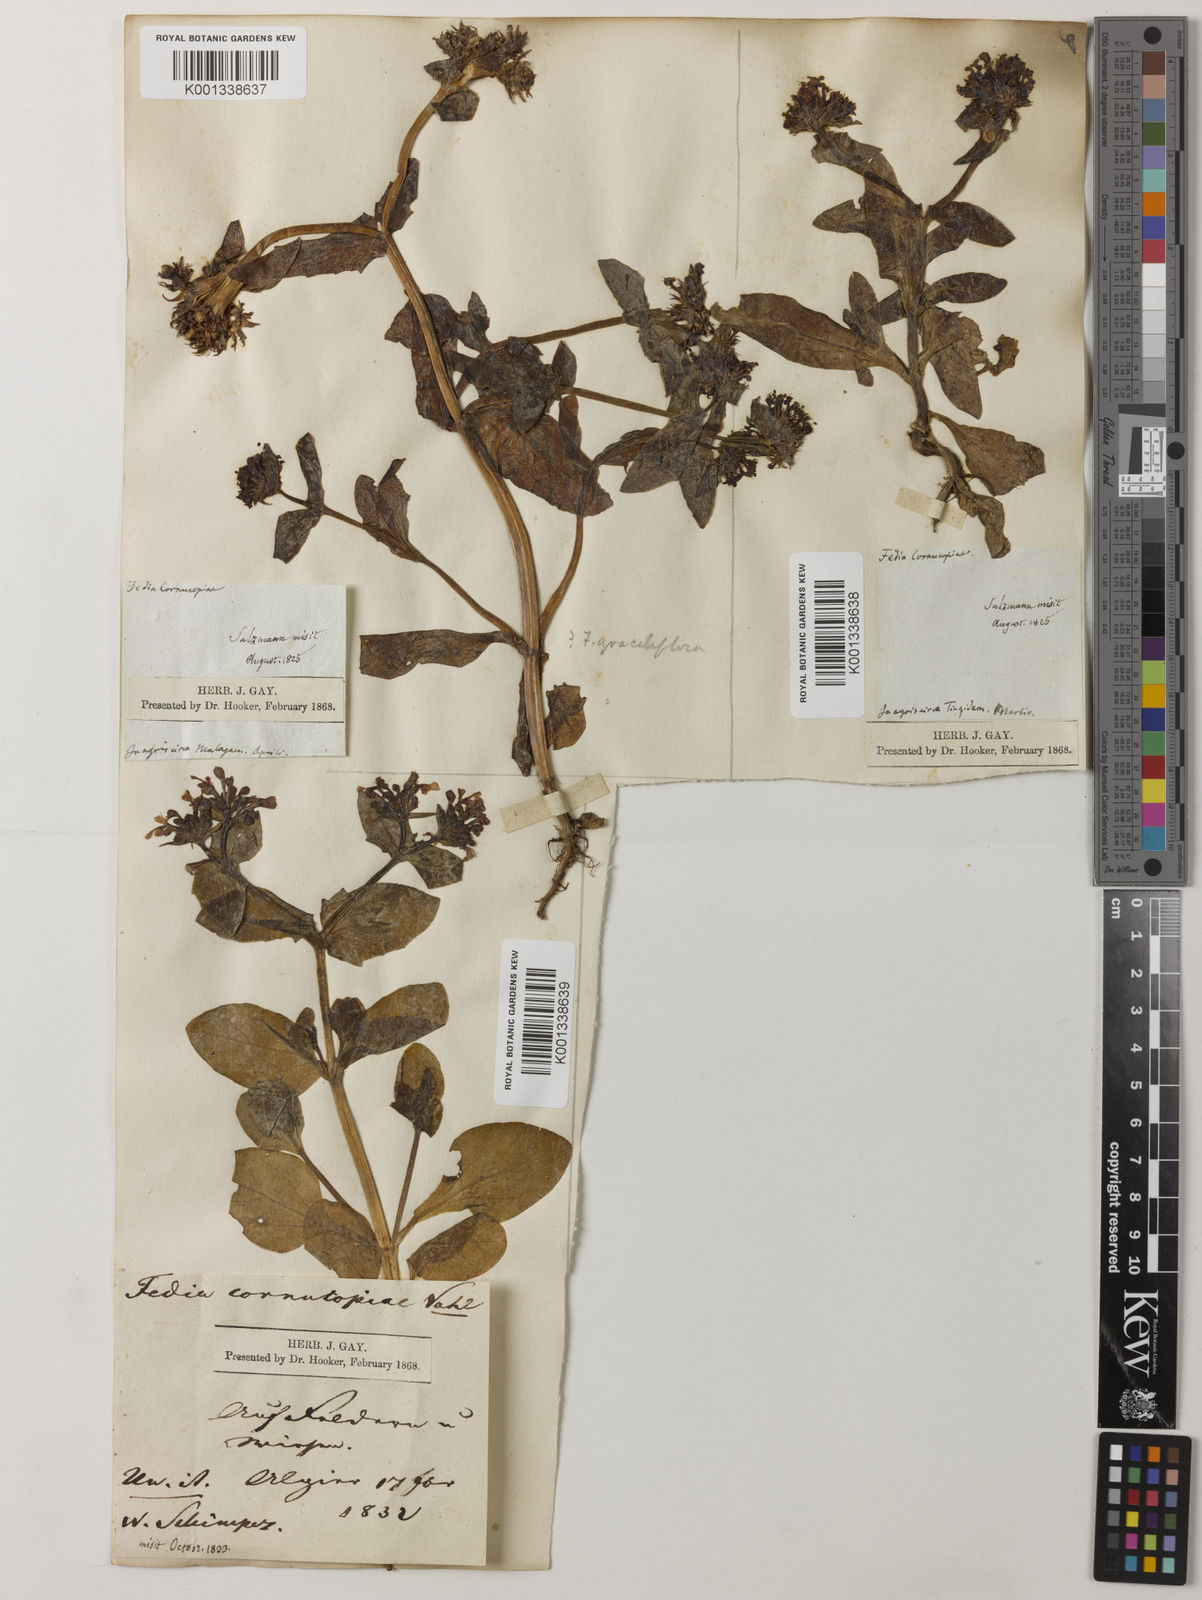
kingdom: Plantae
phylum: Tracheophyta
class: Magnoliopsida
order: Dipsacales
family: Caprifoliaceae
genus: Fedia
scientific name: Fedia cornucopiae
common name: Horn-of-plenty
